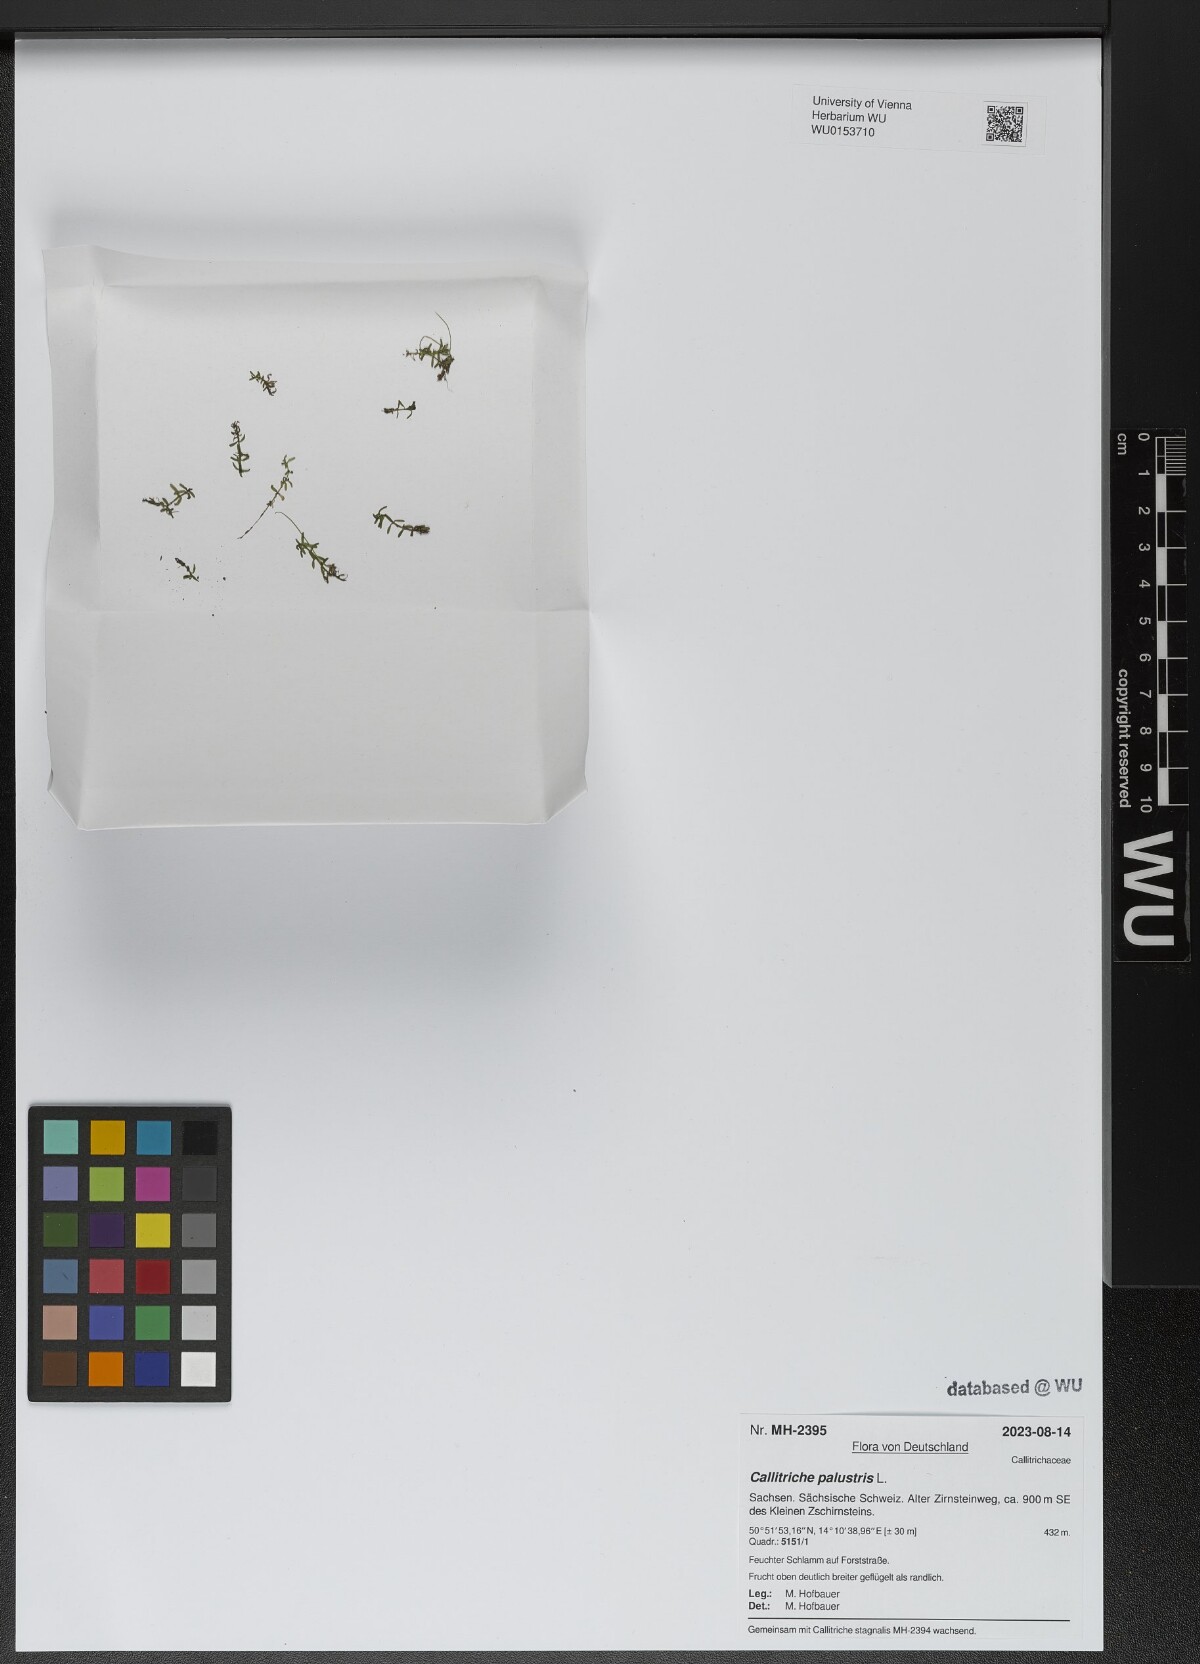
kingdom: Plantae
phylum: Tracheophyta
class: Magnoliopsida
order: Lamiales
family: Plantaginaceae
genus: Callitriche
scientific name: Callitriche palustris
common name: Spring water-starwort
